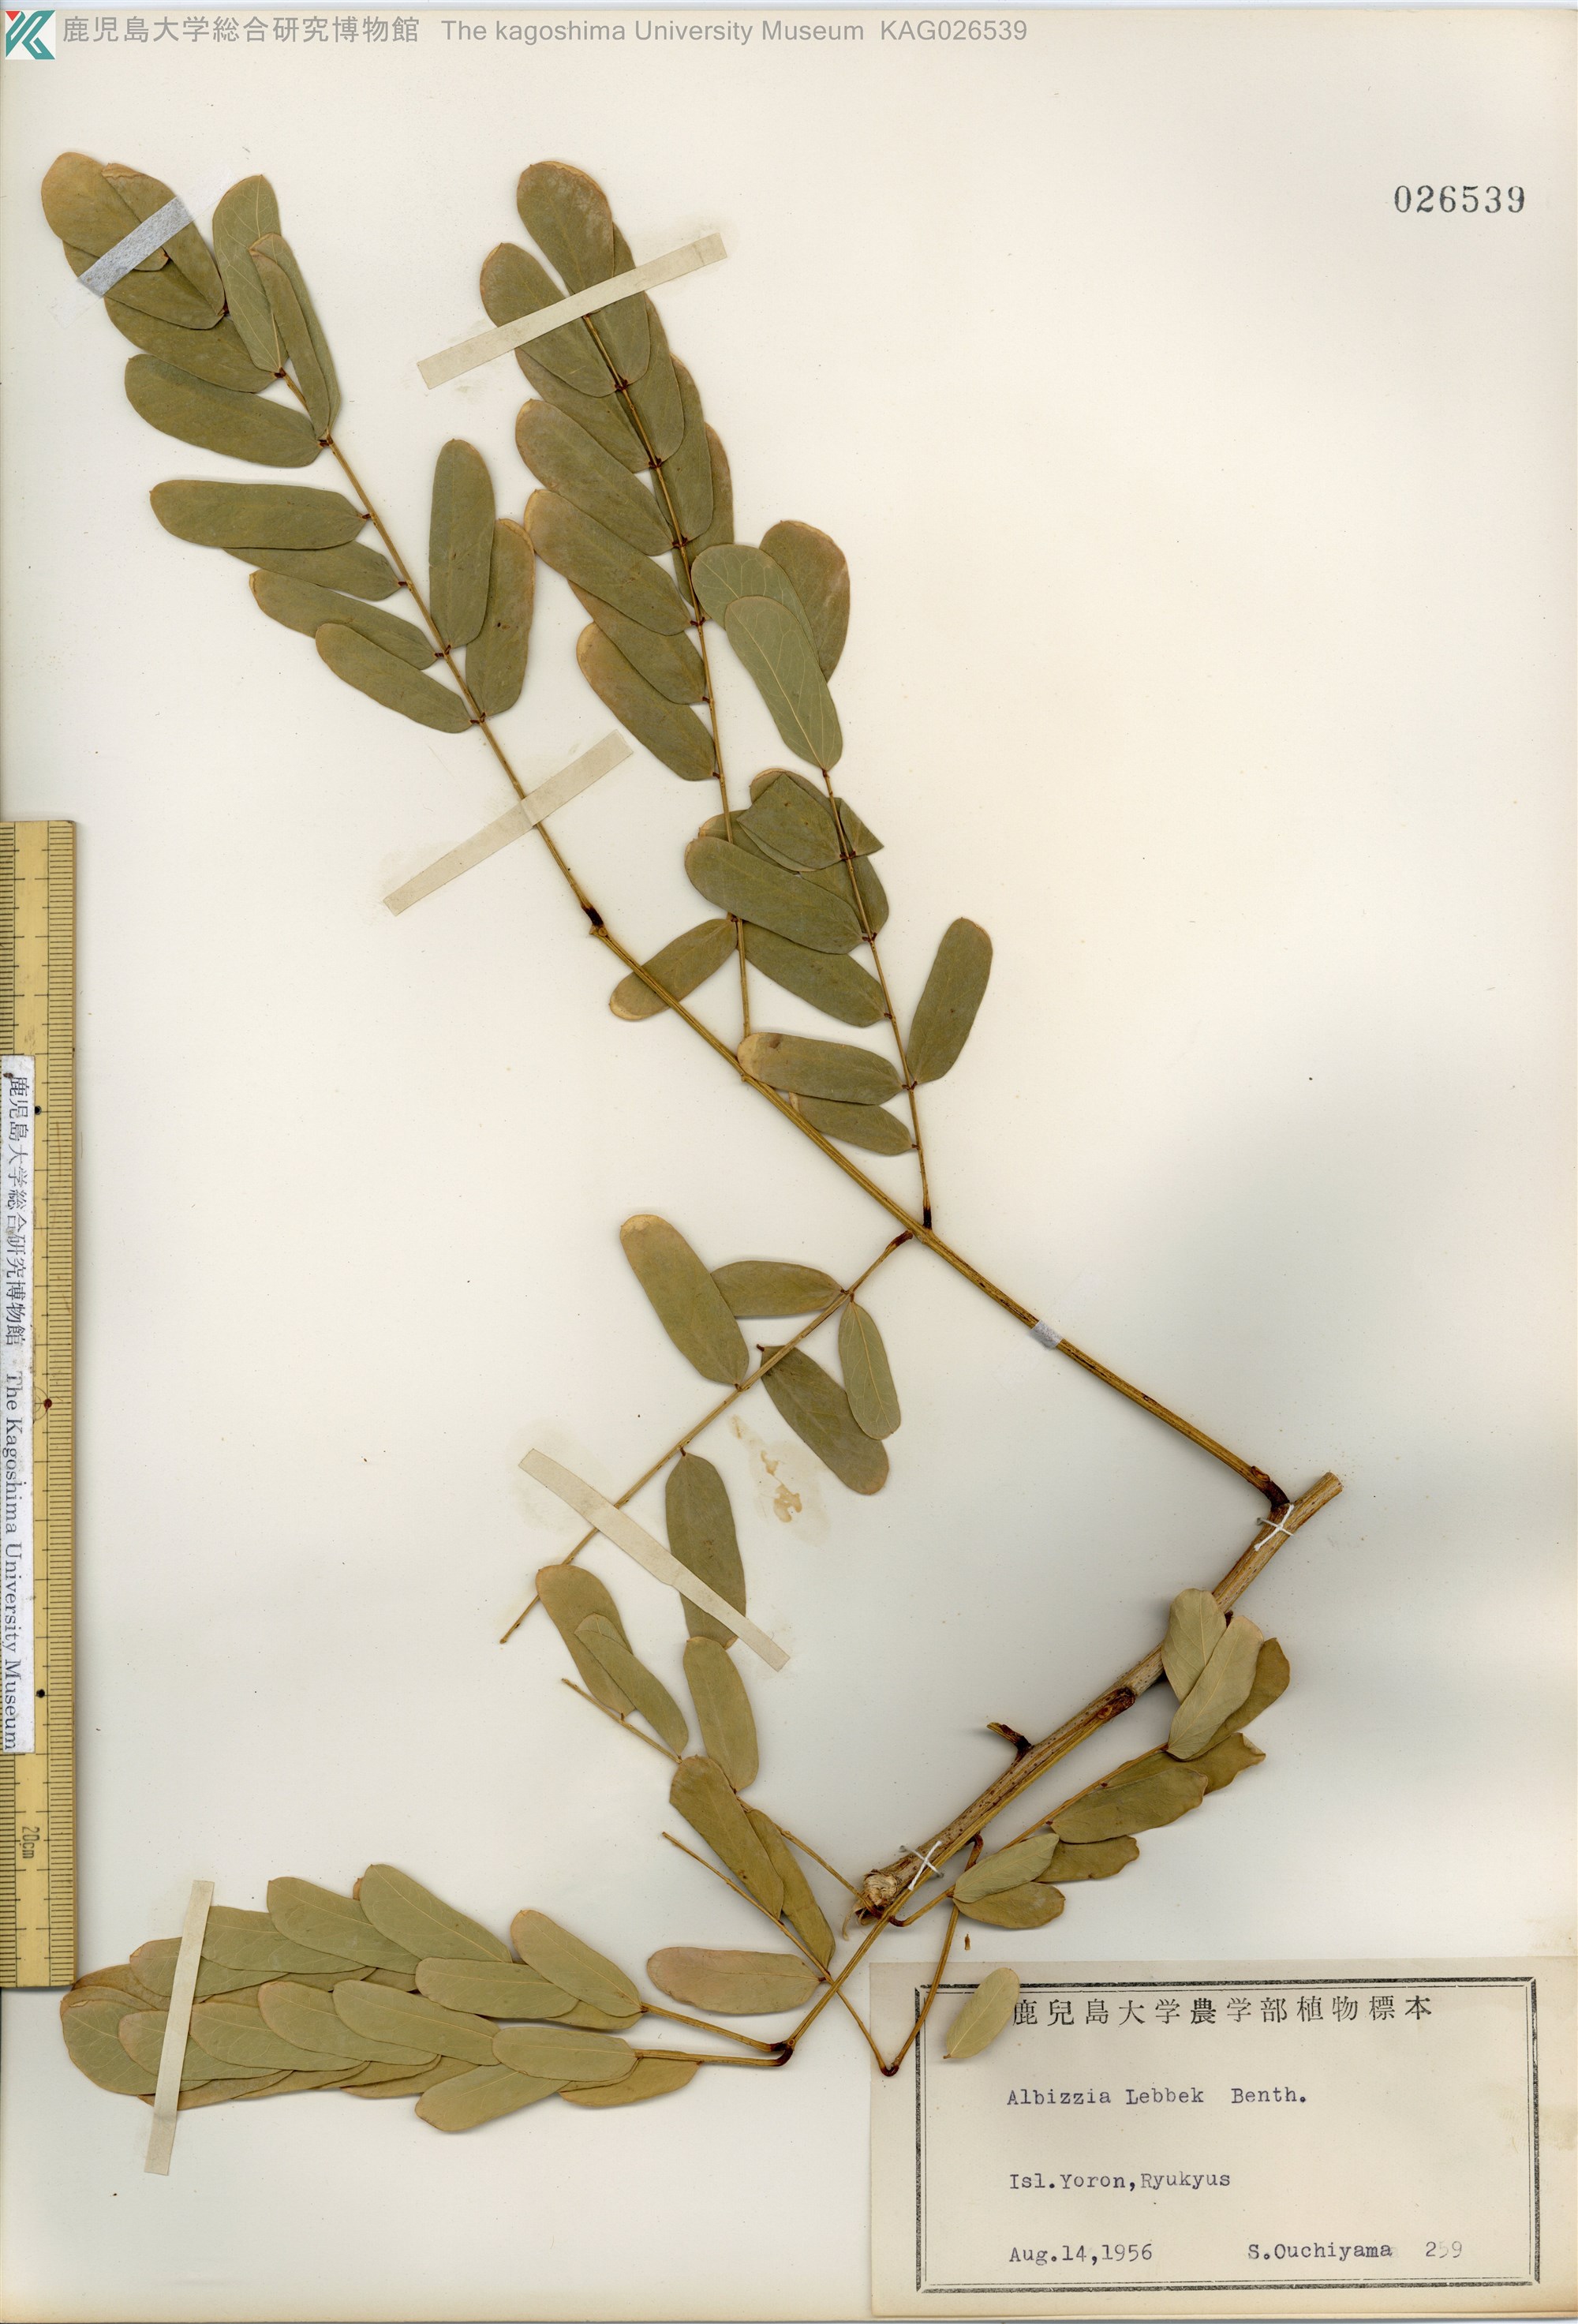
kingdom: Plantae
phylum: Tracheophyta
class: Magnoliopsida
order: Fabales
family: Fabaceae
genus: Albizia
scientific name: Albizia lebbeck
